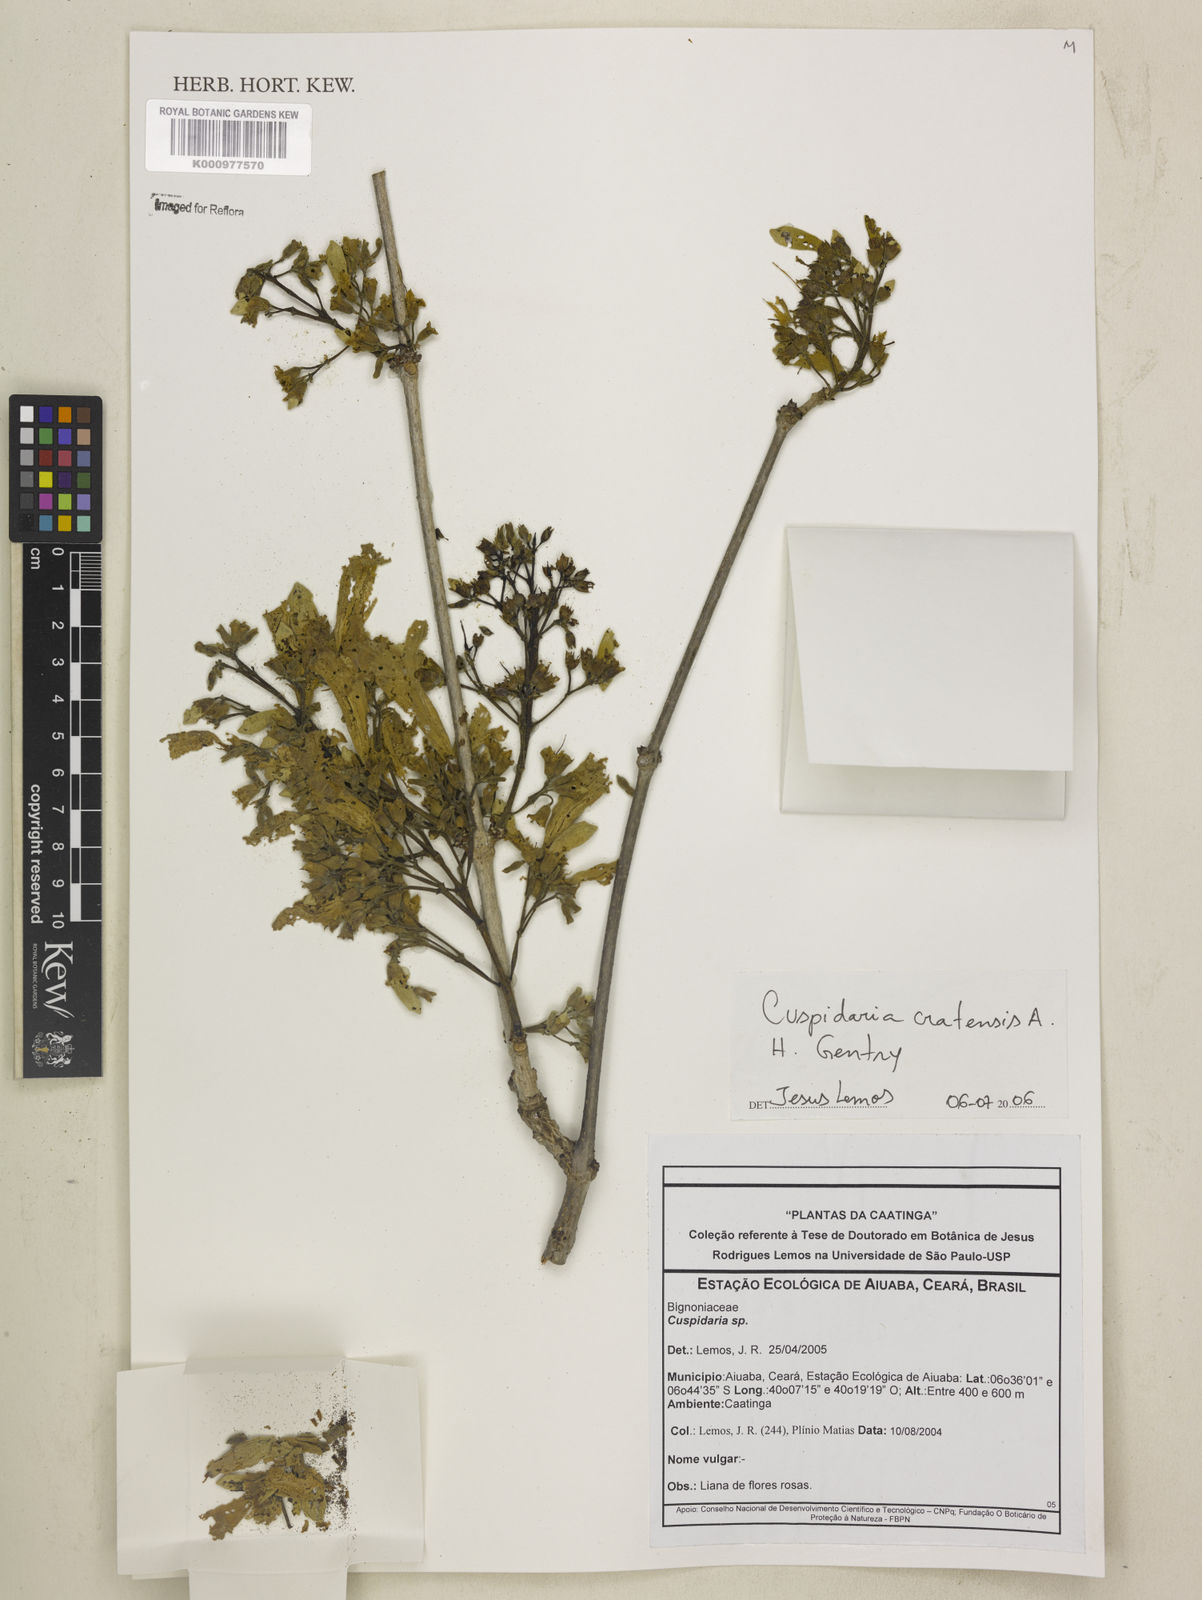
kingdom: Plantae
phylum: Tracheophyta
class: Magnoliopsida
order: Lamiales
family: Bignoniaceae
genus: Cuspidaria
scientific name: Cuspidaria cratensis
